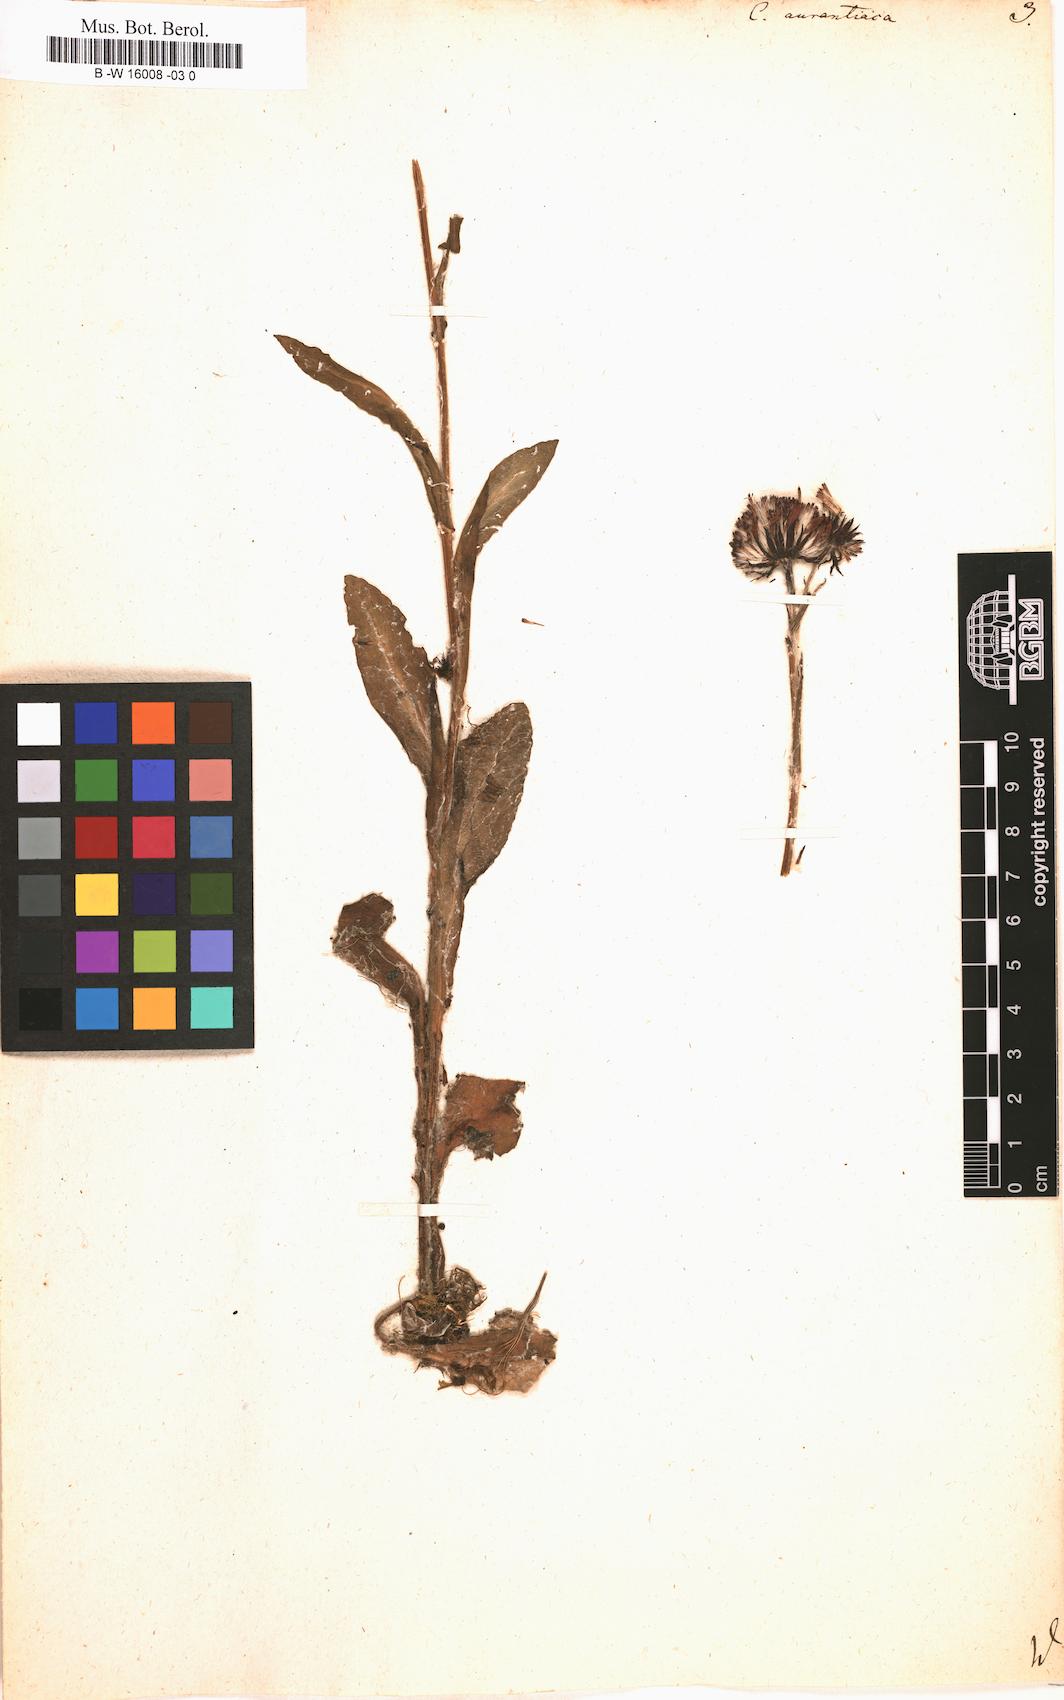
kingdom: Plantae
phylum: Tracheophyta
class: Magnoliopsida
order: Asterales
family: Asteraceae
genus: Tephroseris
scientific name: Tephroseris
